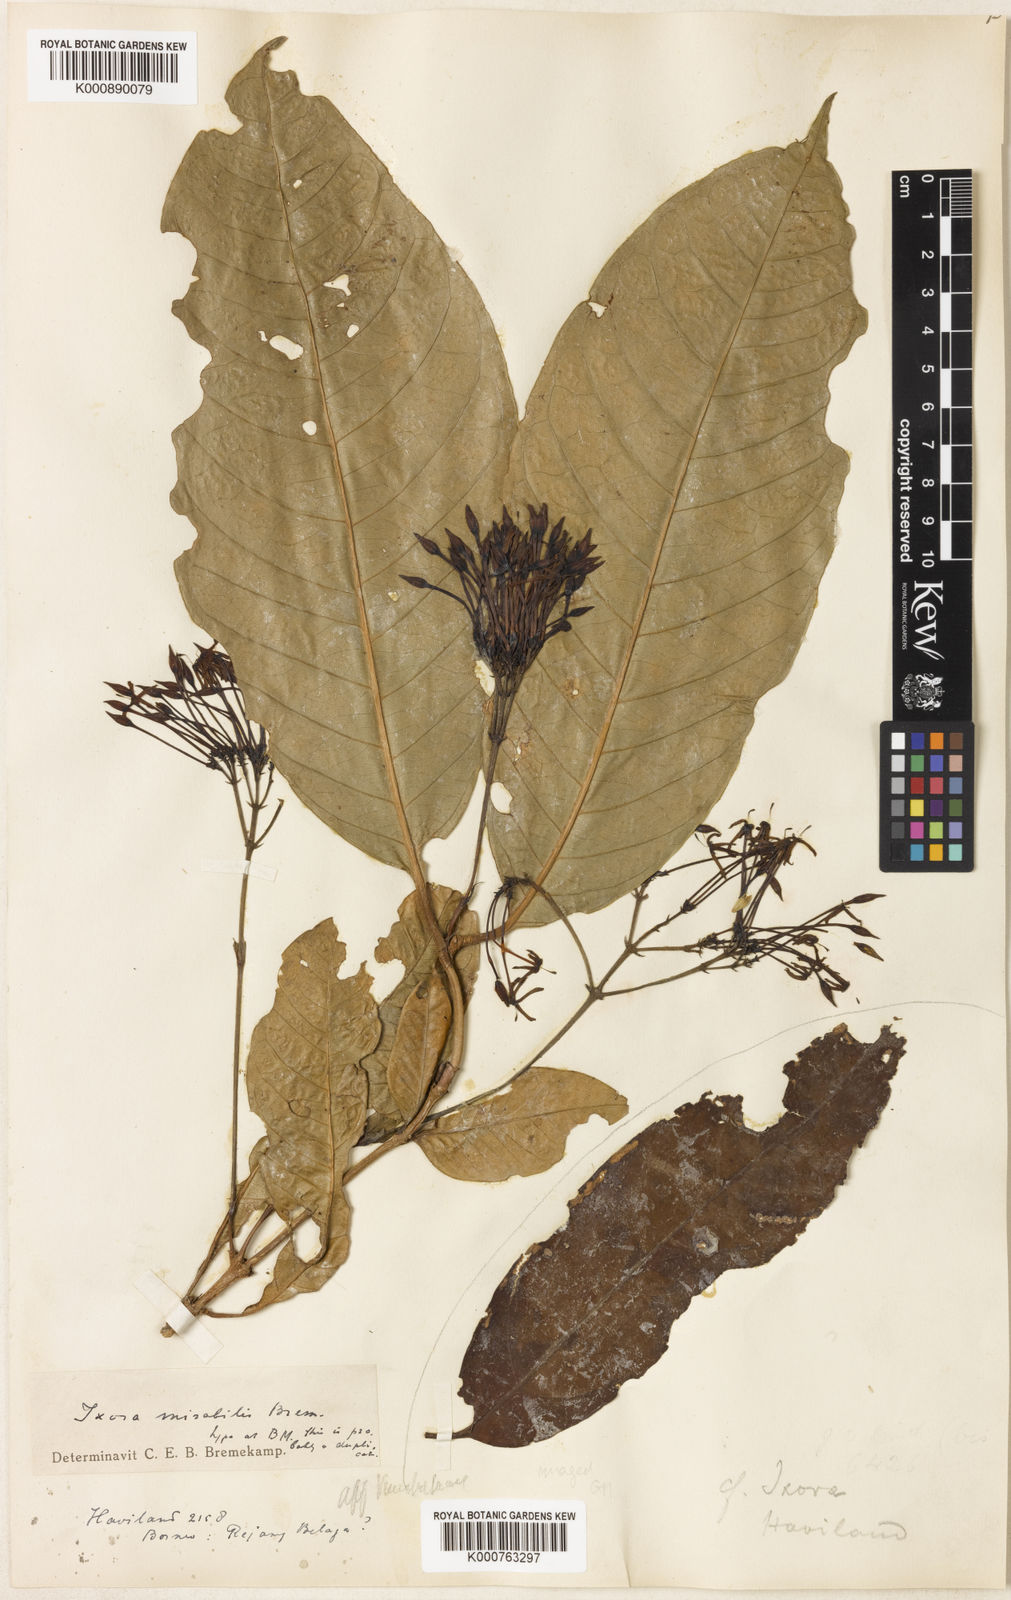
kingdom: Plantae
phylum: Tracheophyta
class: Magnoliopsida
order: Gentianales
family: Rubiaceae
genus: Ixora
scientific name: Ixora mirabilis
